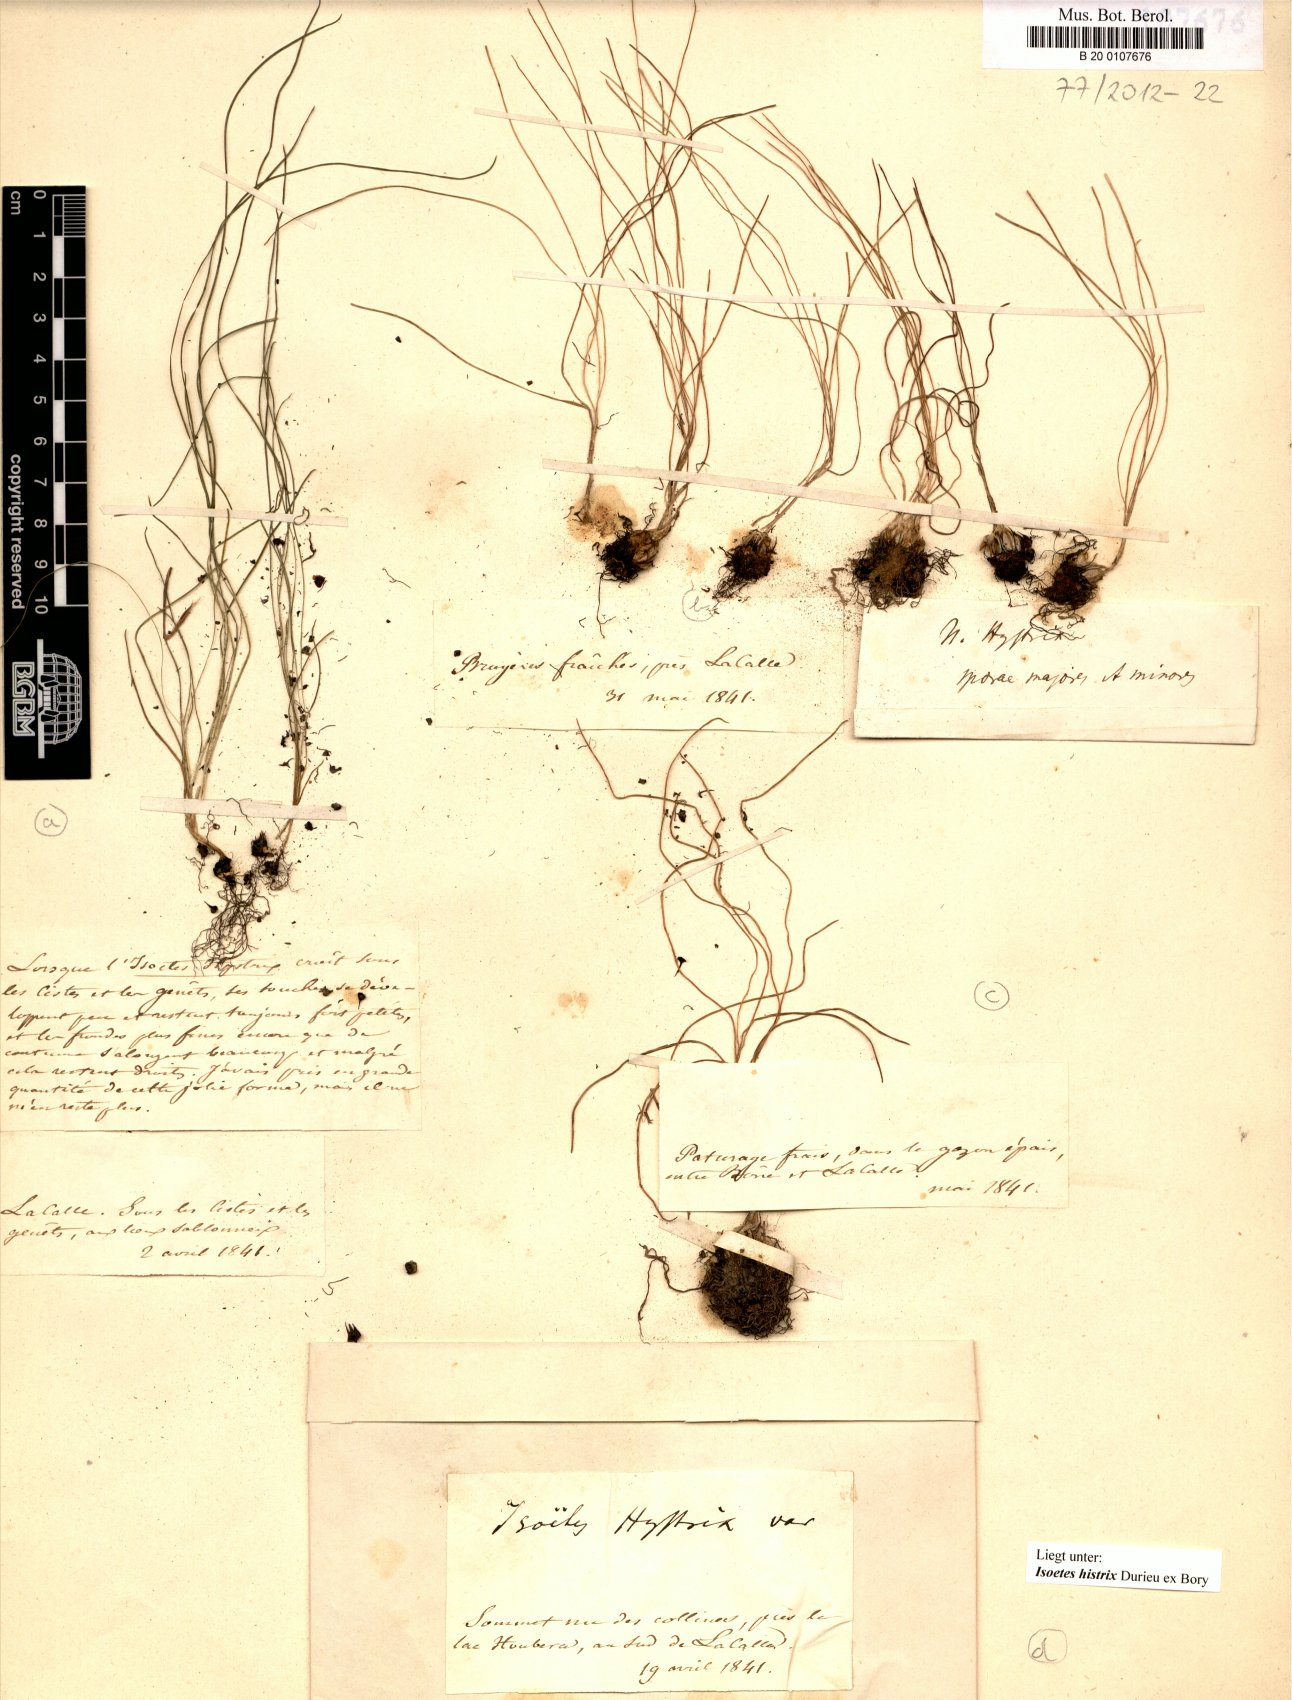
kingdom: Plantae
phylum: Tracheophyta
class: Lycopodiopsida
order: Isoetales
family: Isoetaceae
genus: Isoetes
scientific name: Isoetes histrix
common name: Land quillwort
